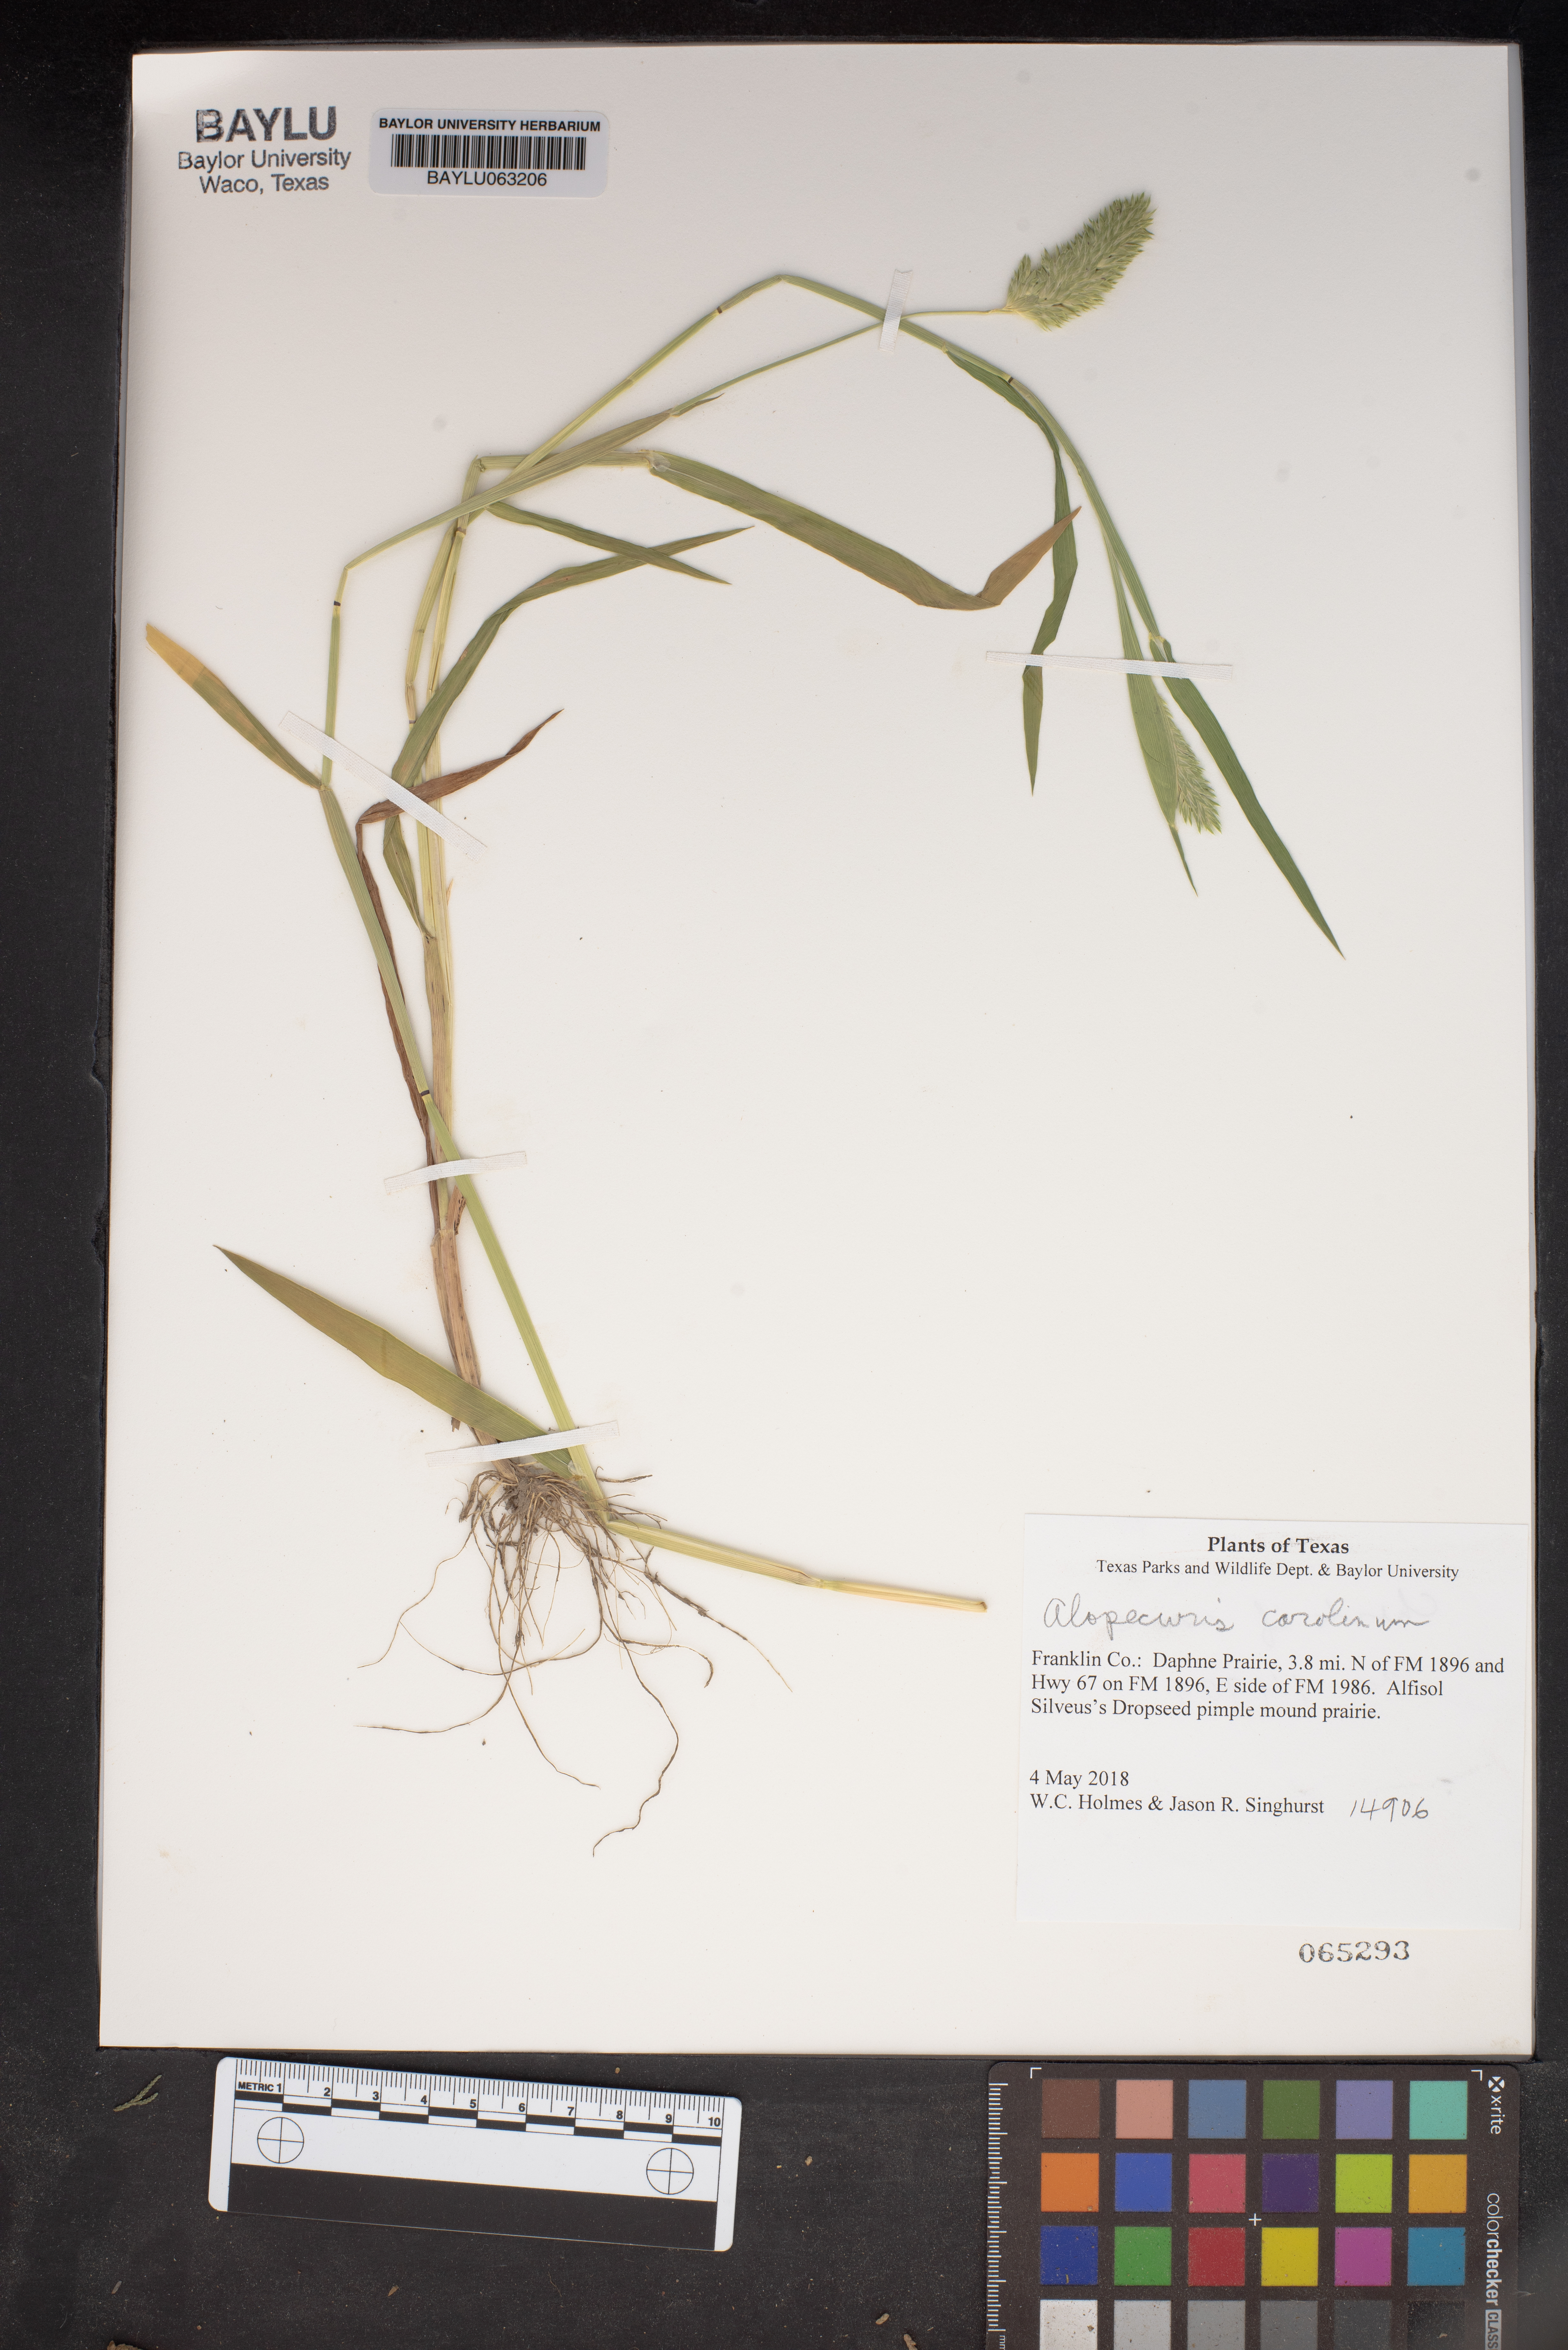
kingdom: Plantae
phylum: Tracheophyta
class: Liliopsida
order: Poales
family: Poaceae
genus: Alopecurus
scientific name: Alopecurus carolinianus
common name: Tufted foxtail
